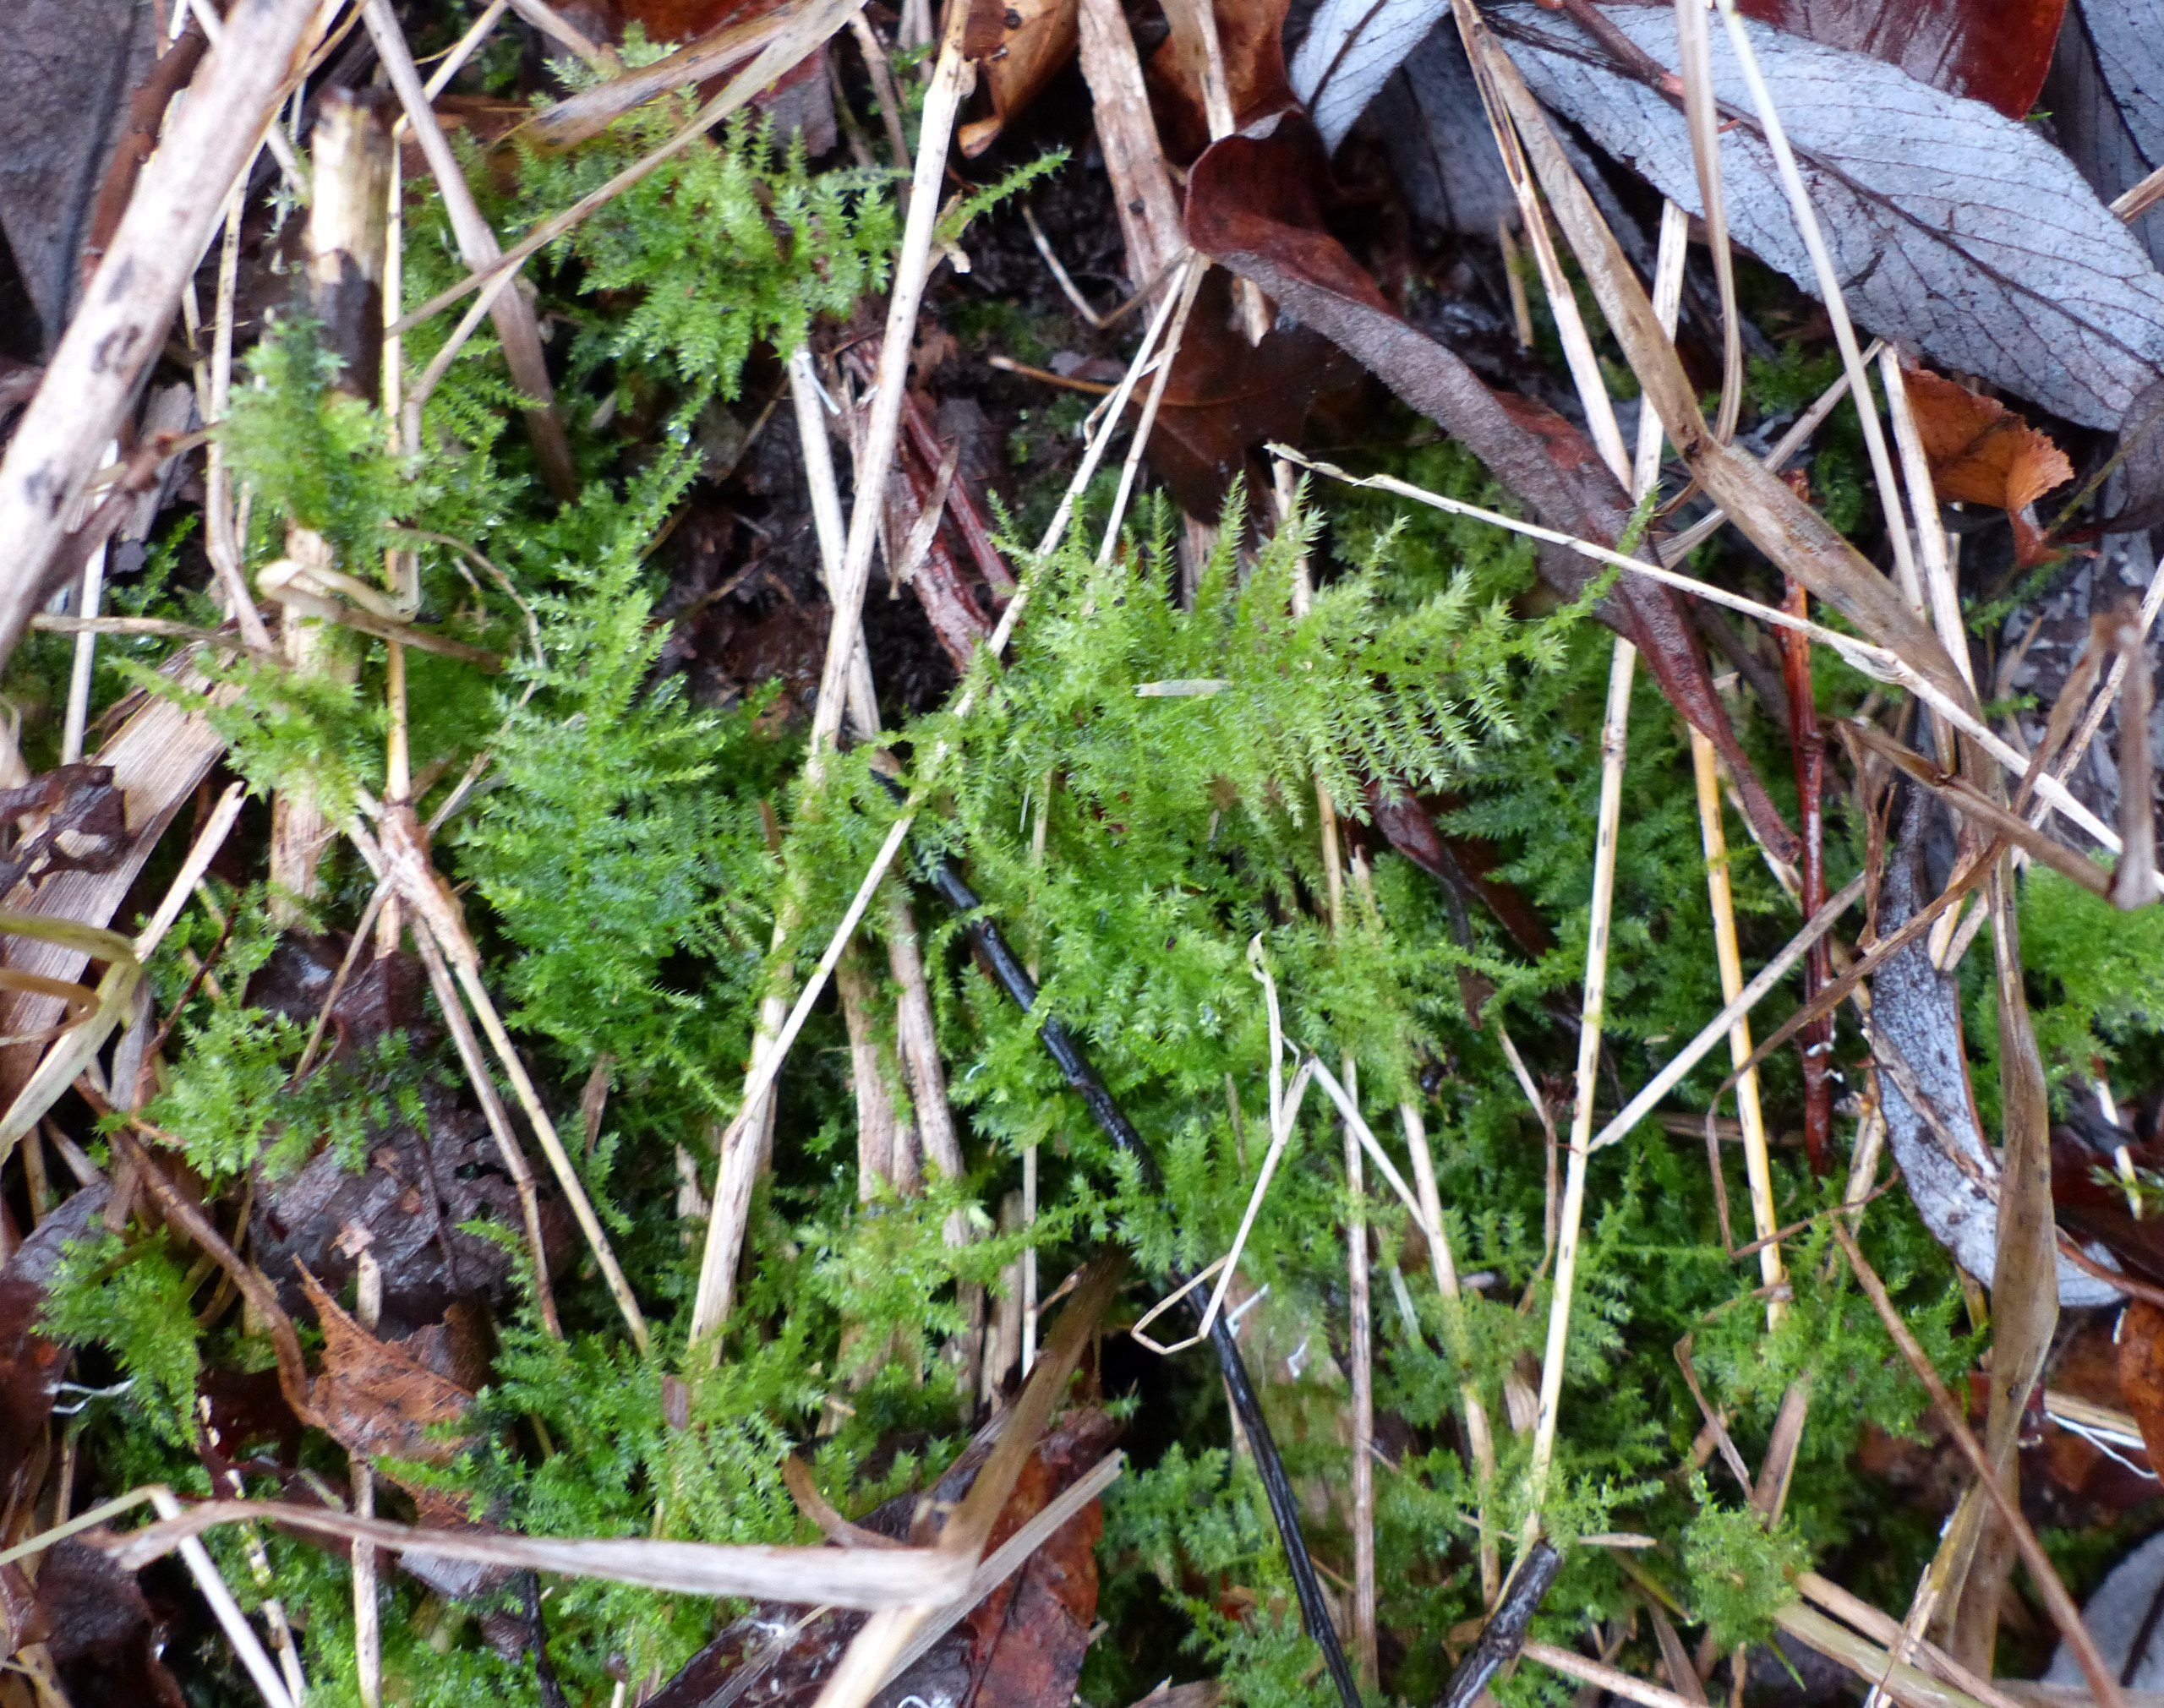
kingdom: Plantae
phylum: Bryophyta
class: Bryopsida
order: Hypnales
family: Brachytheciaceae
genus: Kindbergia
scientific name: Kindbergia praelonga
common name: Forskelligbladet vortetand
